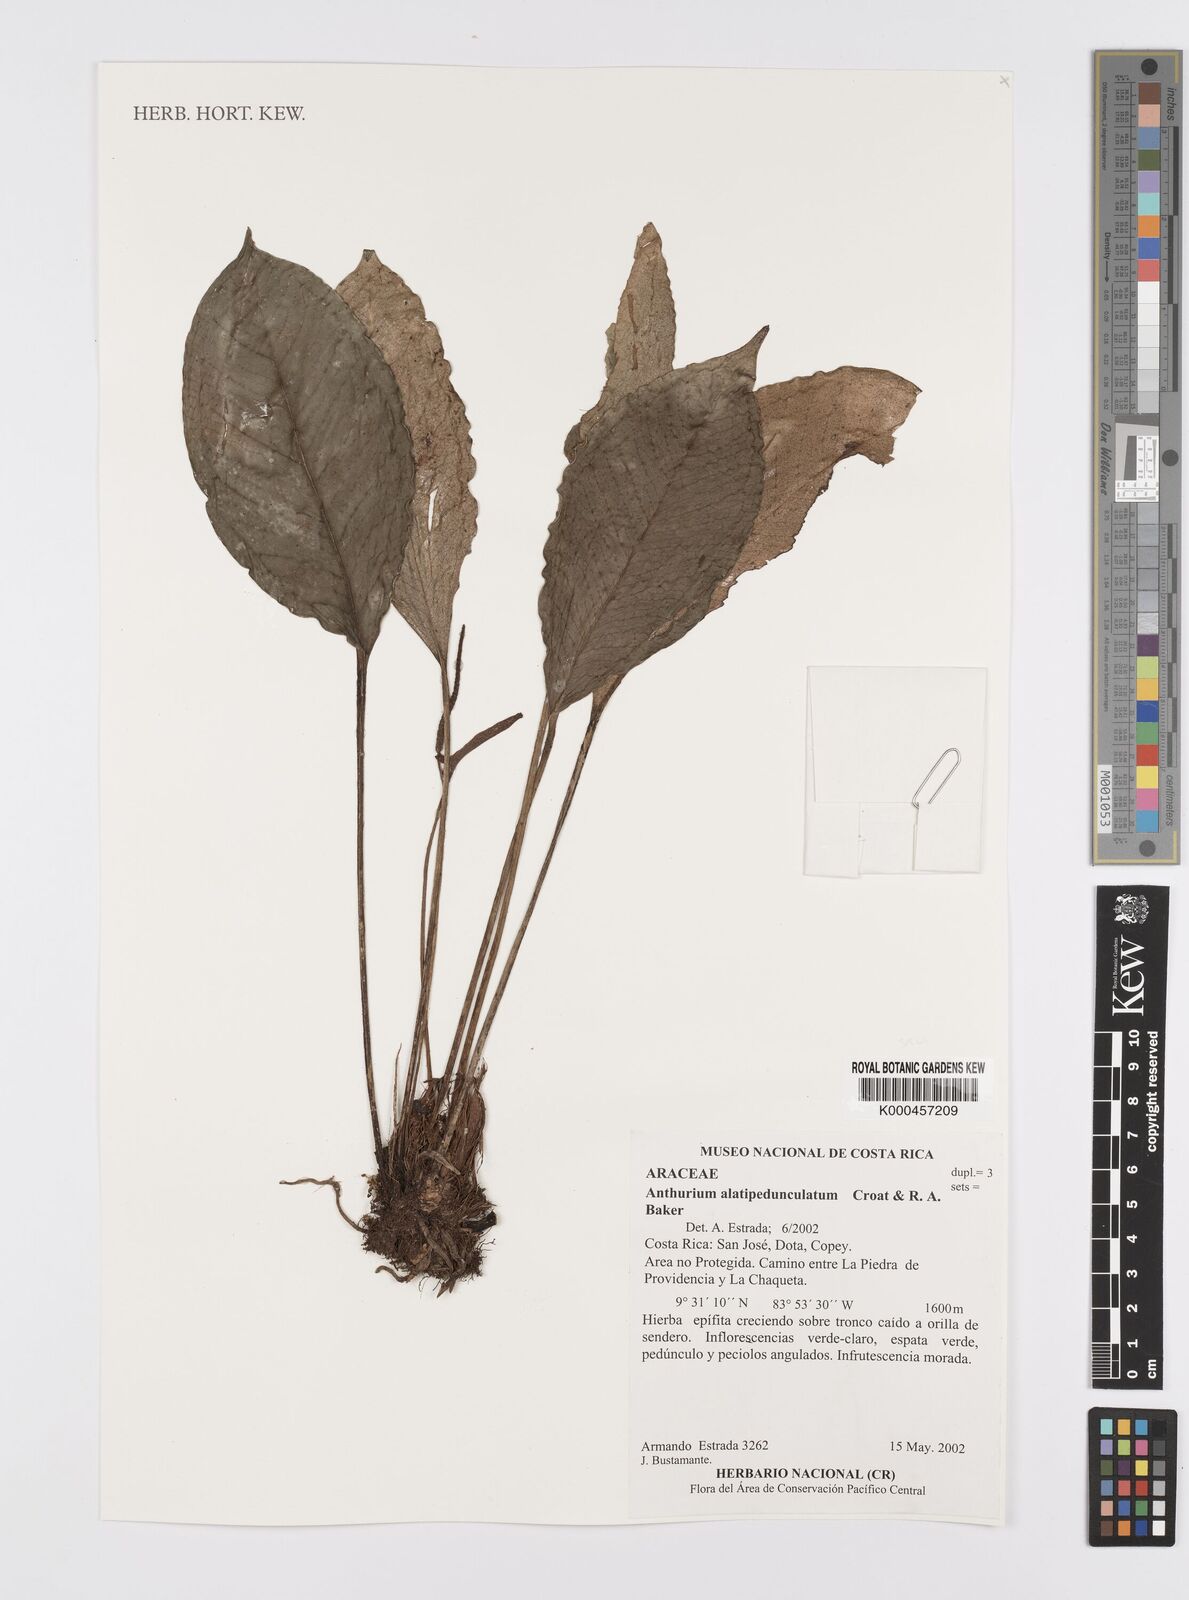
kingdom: Plantae
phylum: Tracheophyta
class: Liliopsida
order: Alismatales
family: Araceae
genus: Anthurium
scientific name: Anthurium alatipedunculatum
